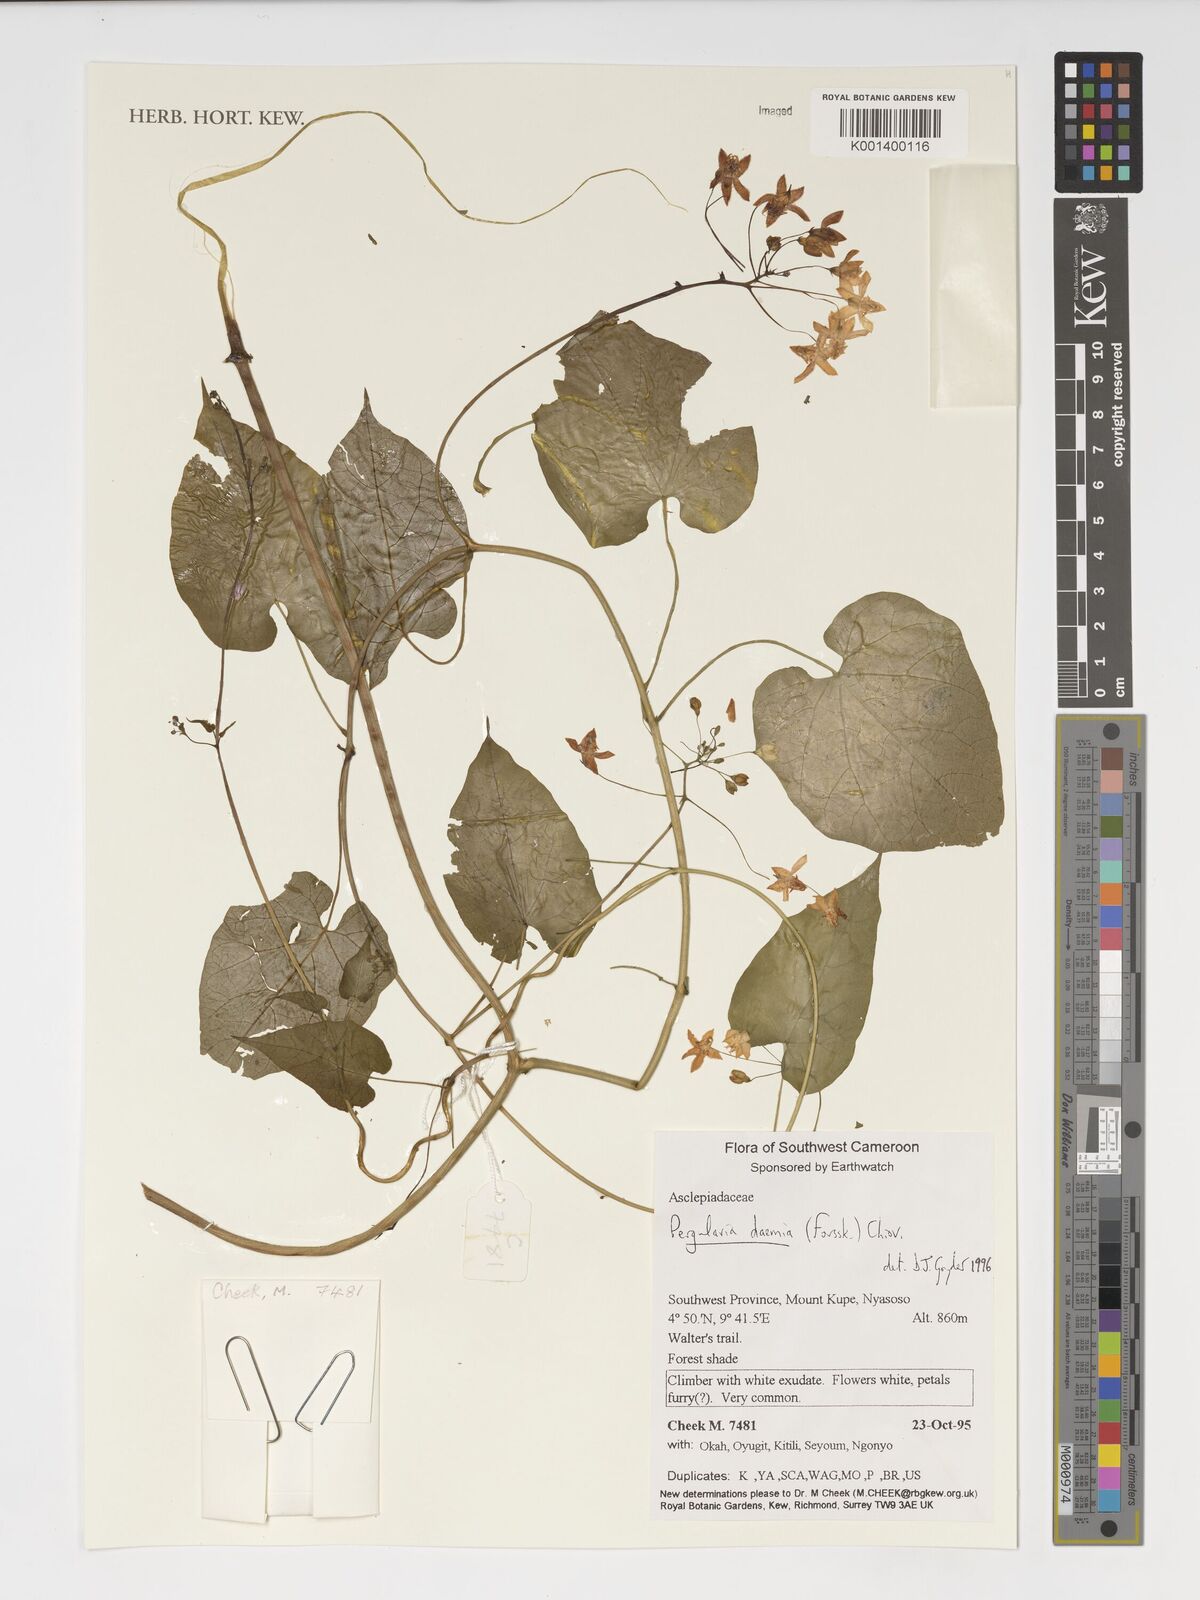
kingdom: Plantae
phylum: Tracheophyta
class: Magnoliopsida
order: Gentianales
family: Apocynaceae
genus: Pergularia
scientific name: Pergularia daemia
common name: Trellis-vine
